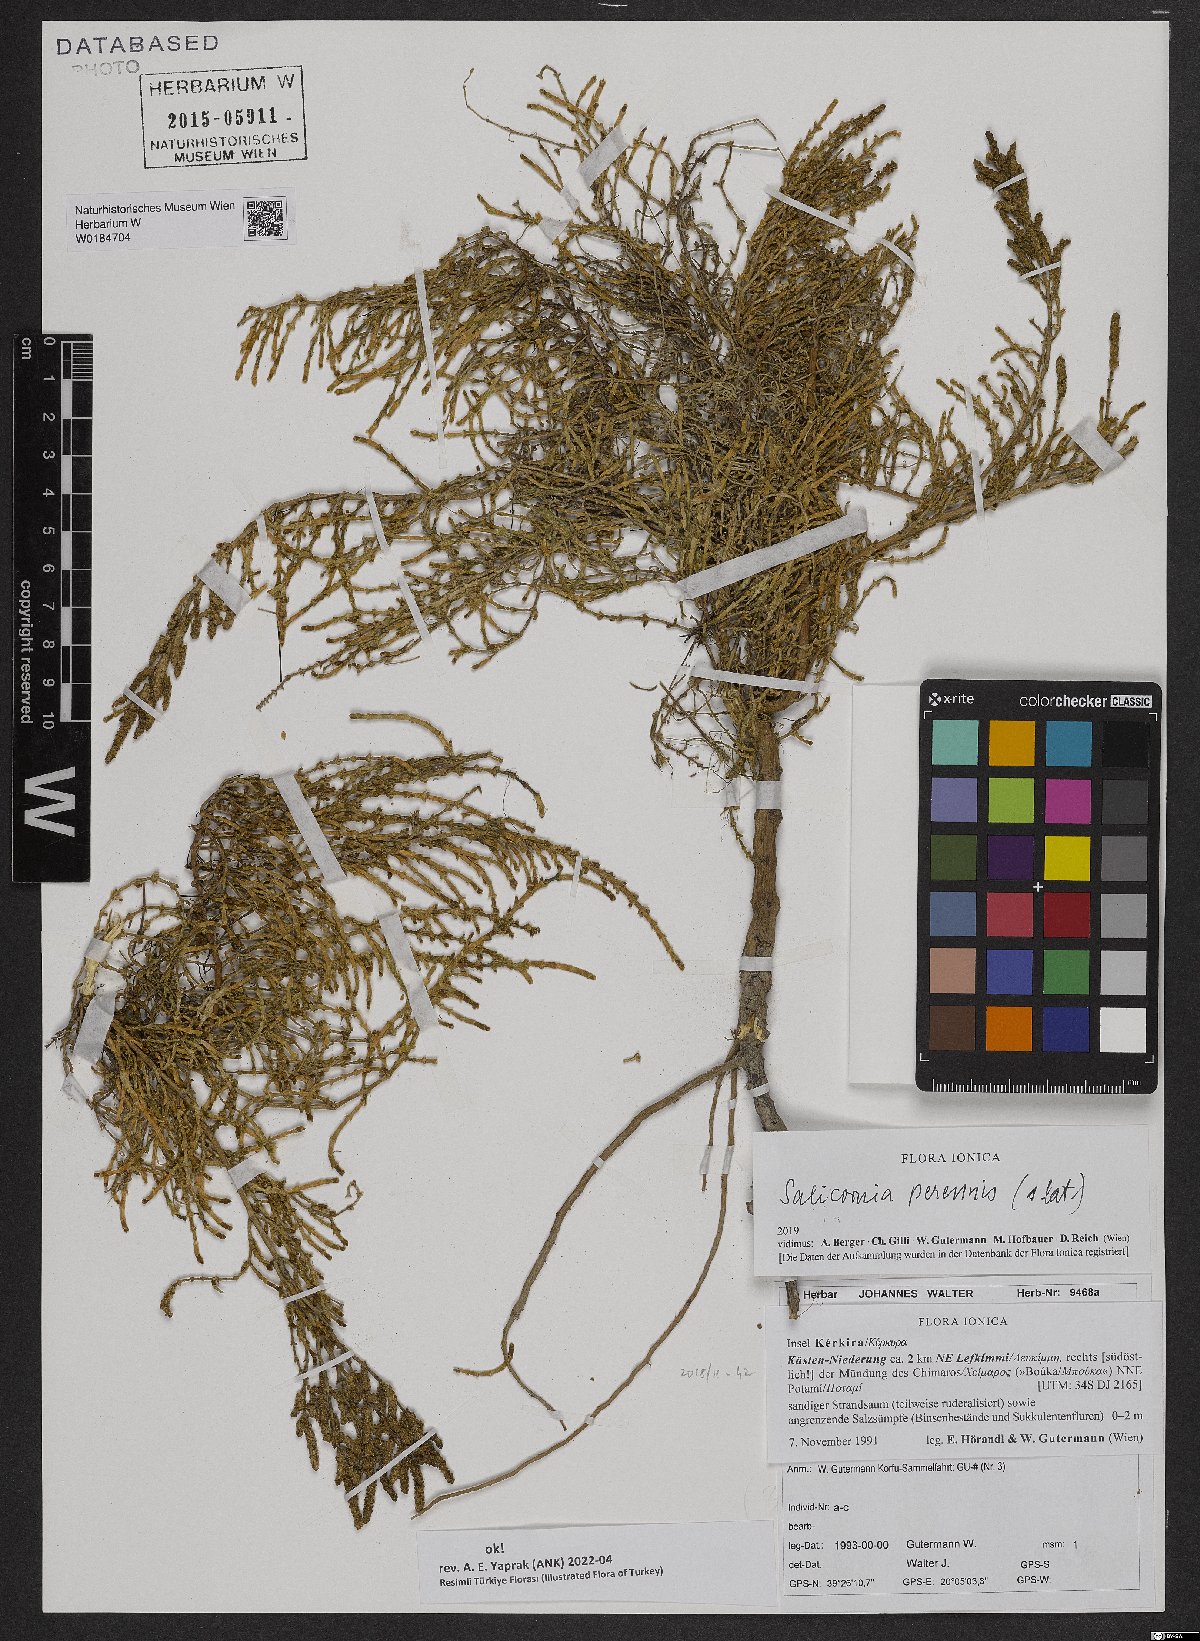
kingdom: Plantae
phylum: Tracheophyta
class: Magnoliopsida
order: Caryophyllales
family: Amaranthaceae
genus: Salicornia
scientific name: Salicornia perennis
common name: Chicken claws
